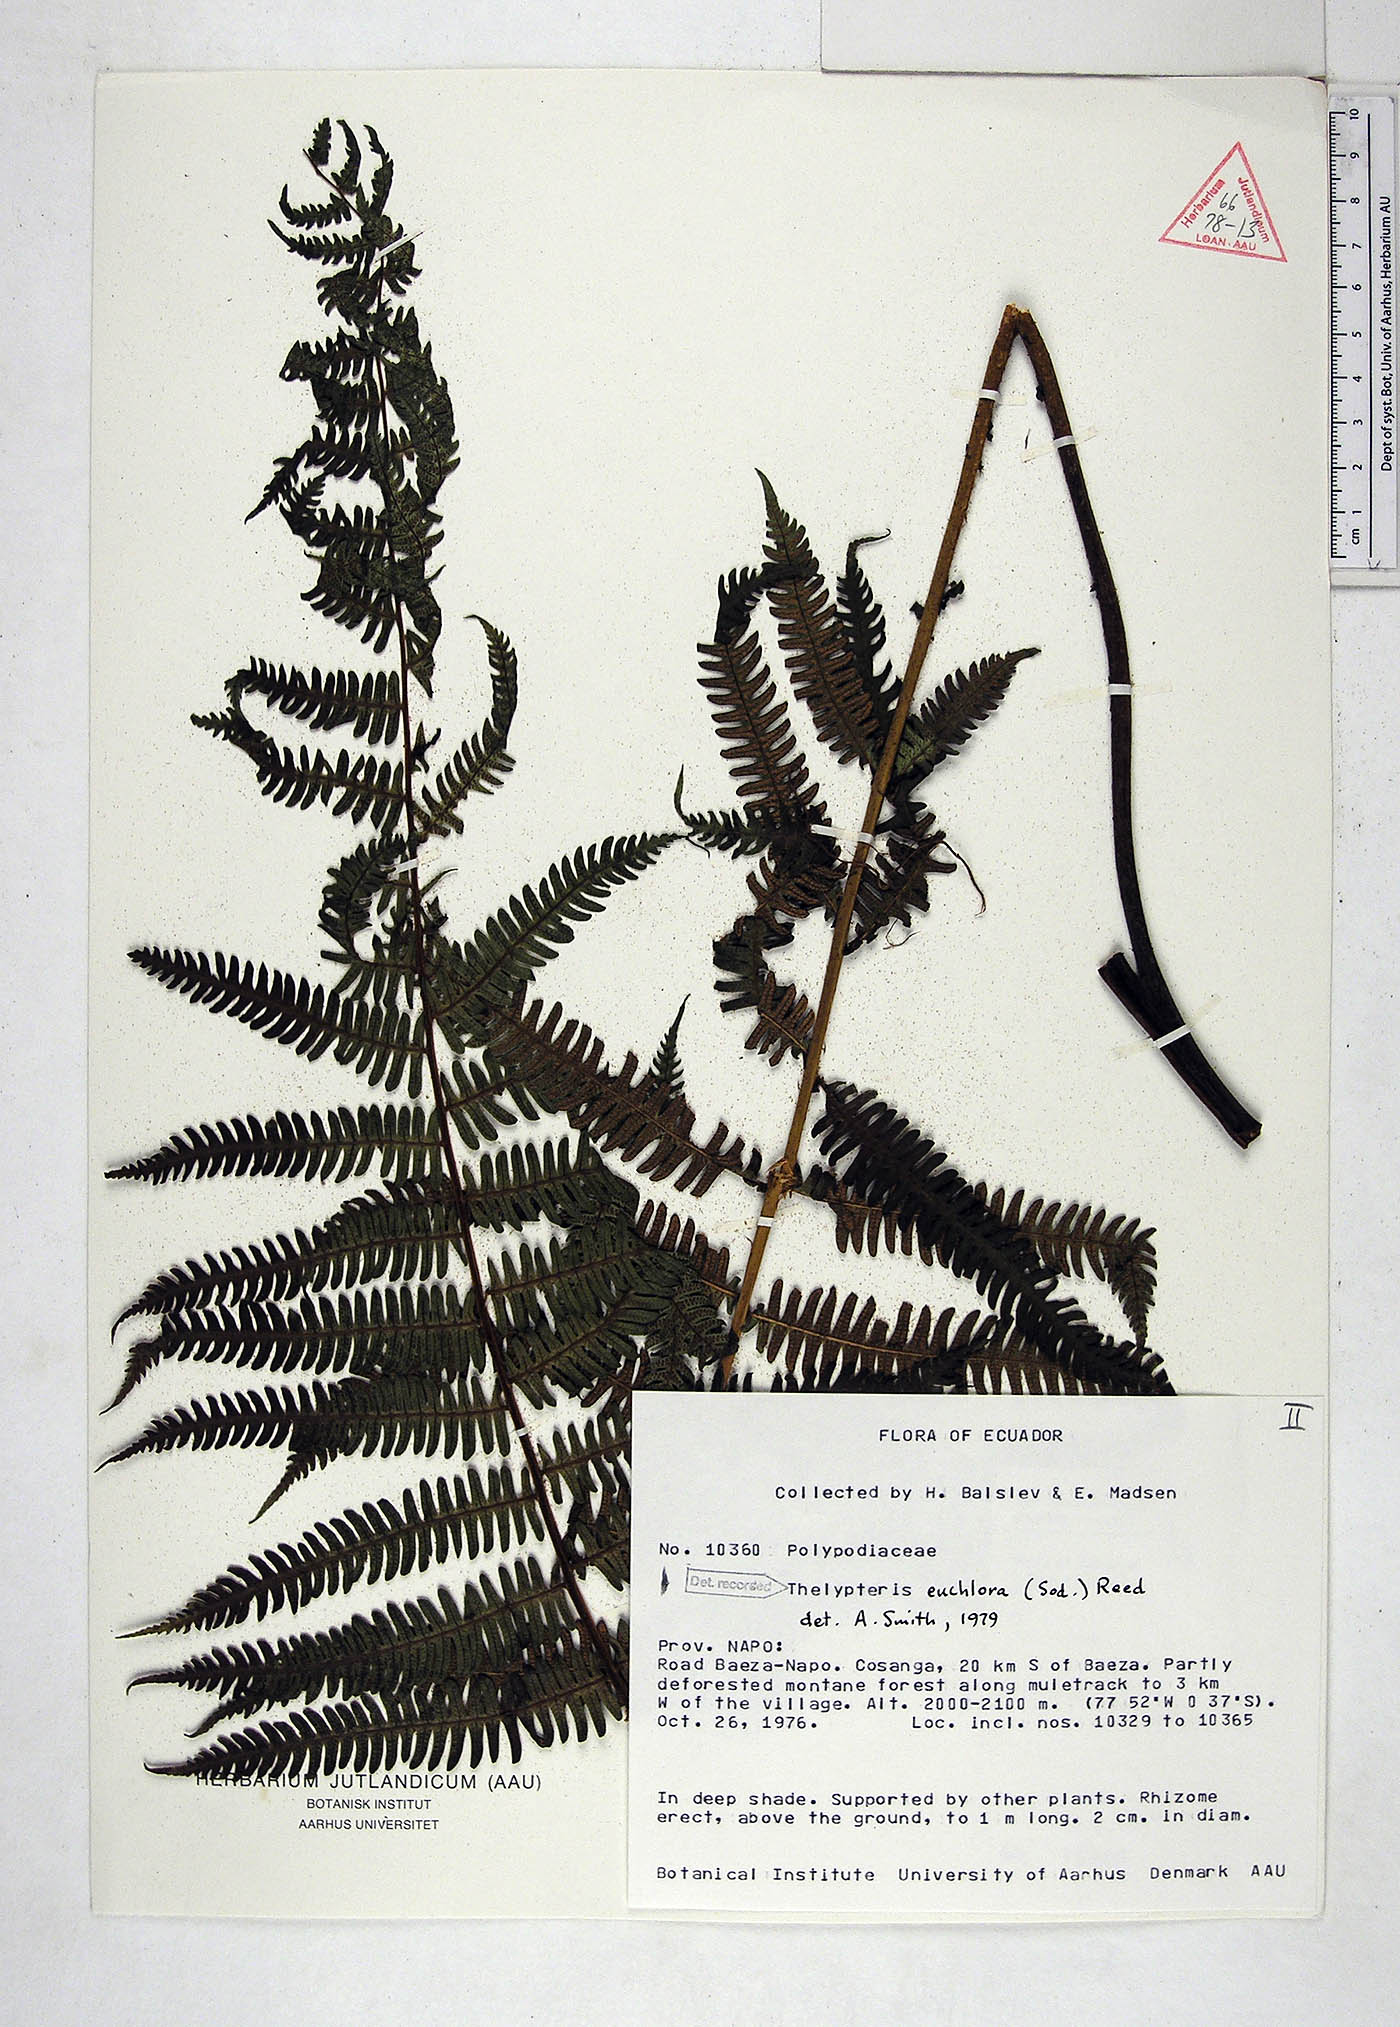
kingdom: Plantae
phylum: Tracheophyta
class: Polypodiopsida
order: Polypodiales
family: Thelypteridaceae
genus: Amauropelta
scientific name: Amauropelta euchlora
